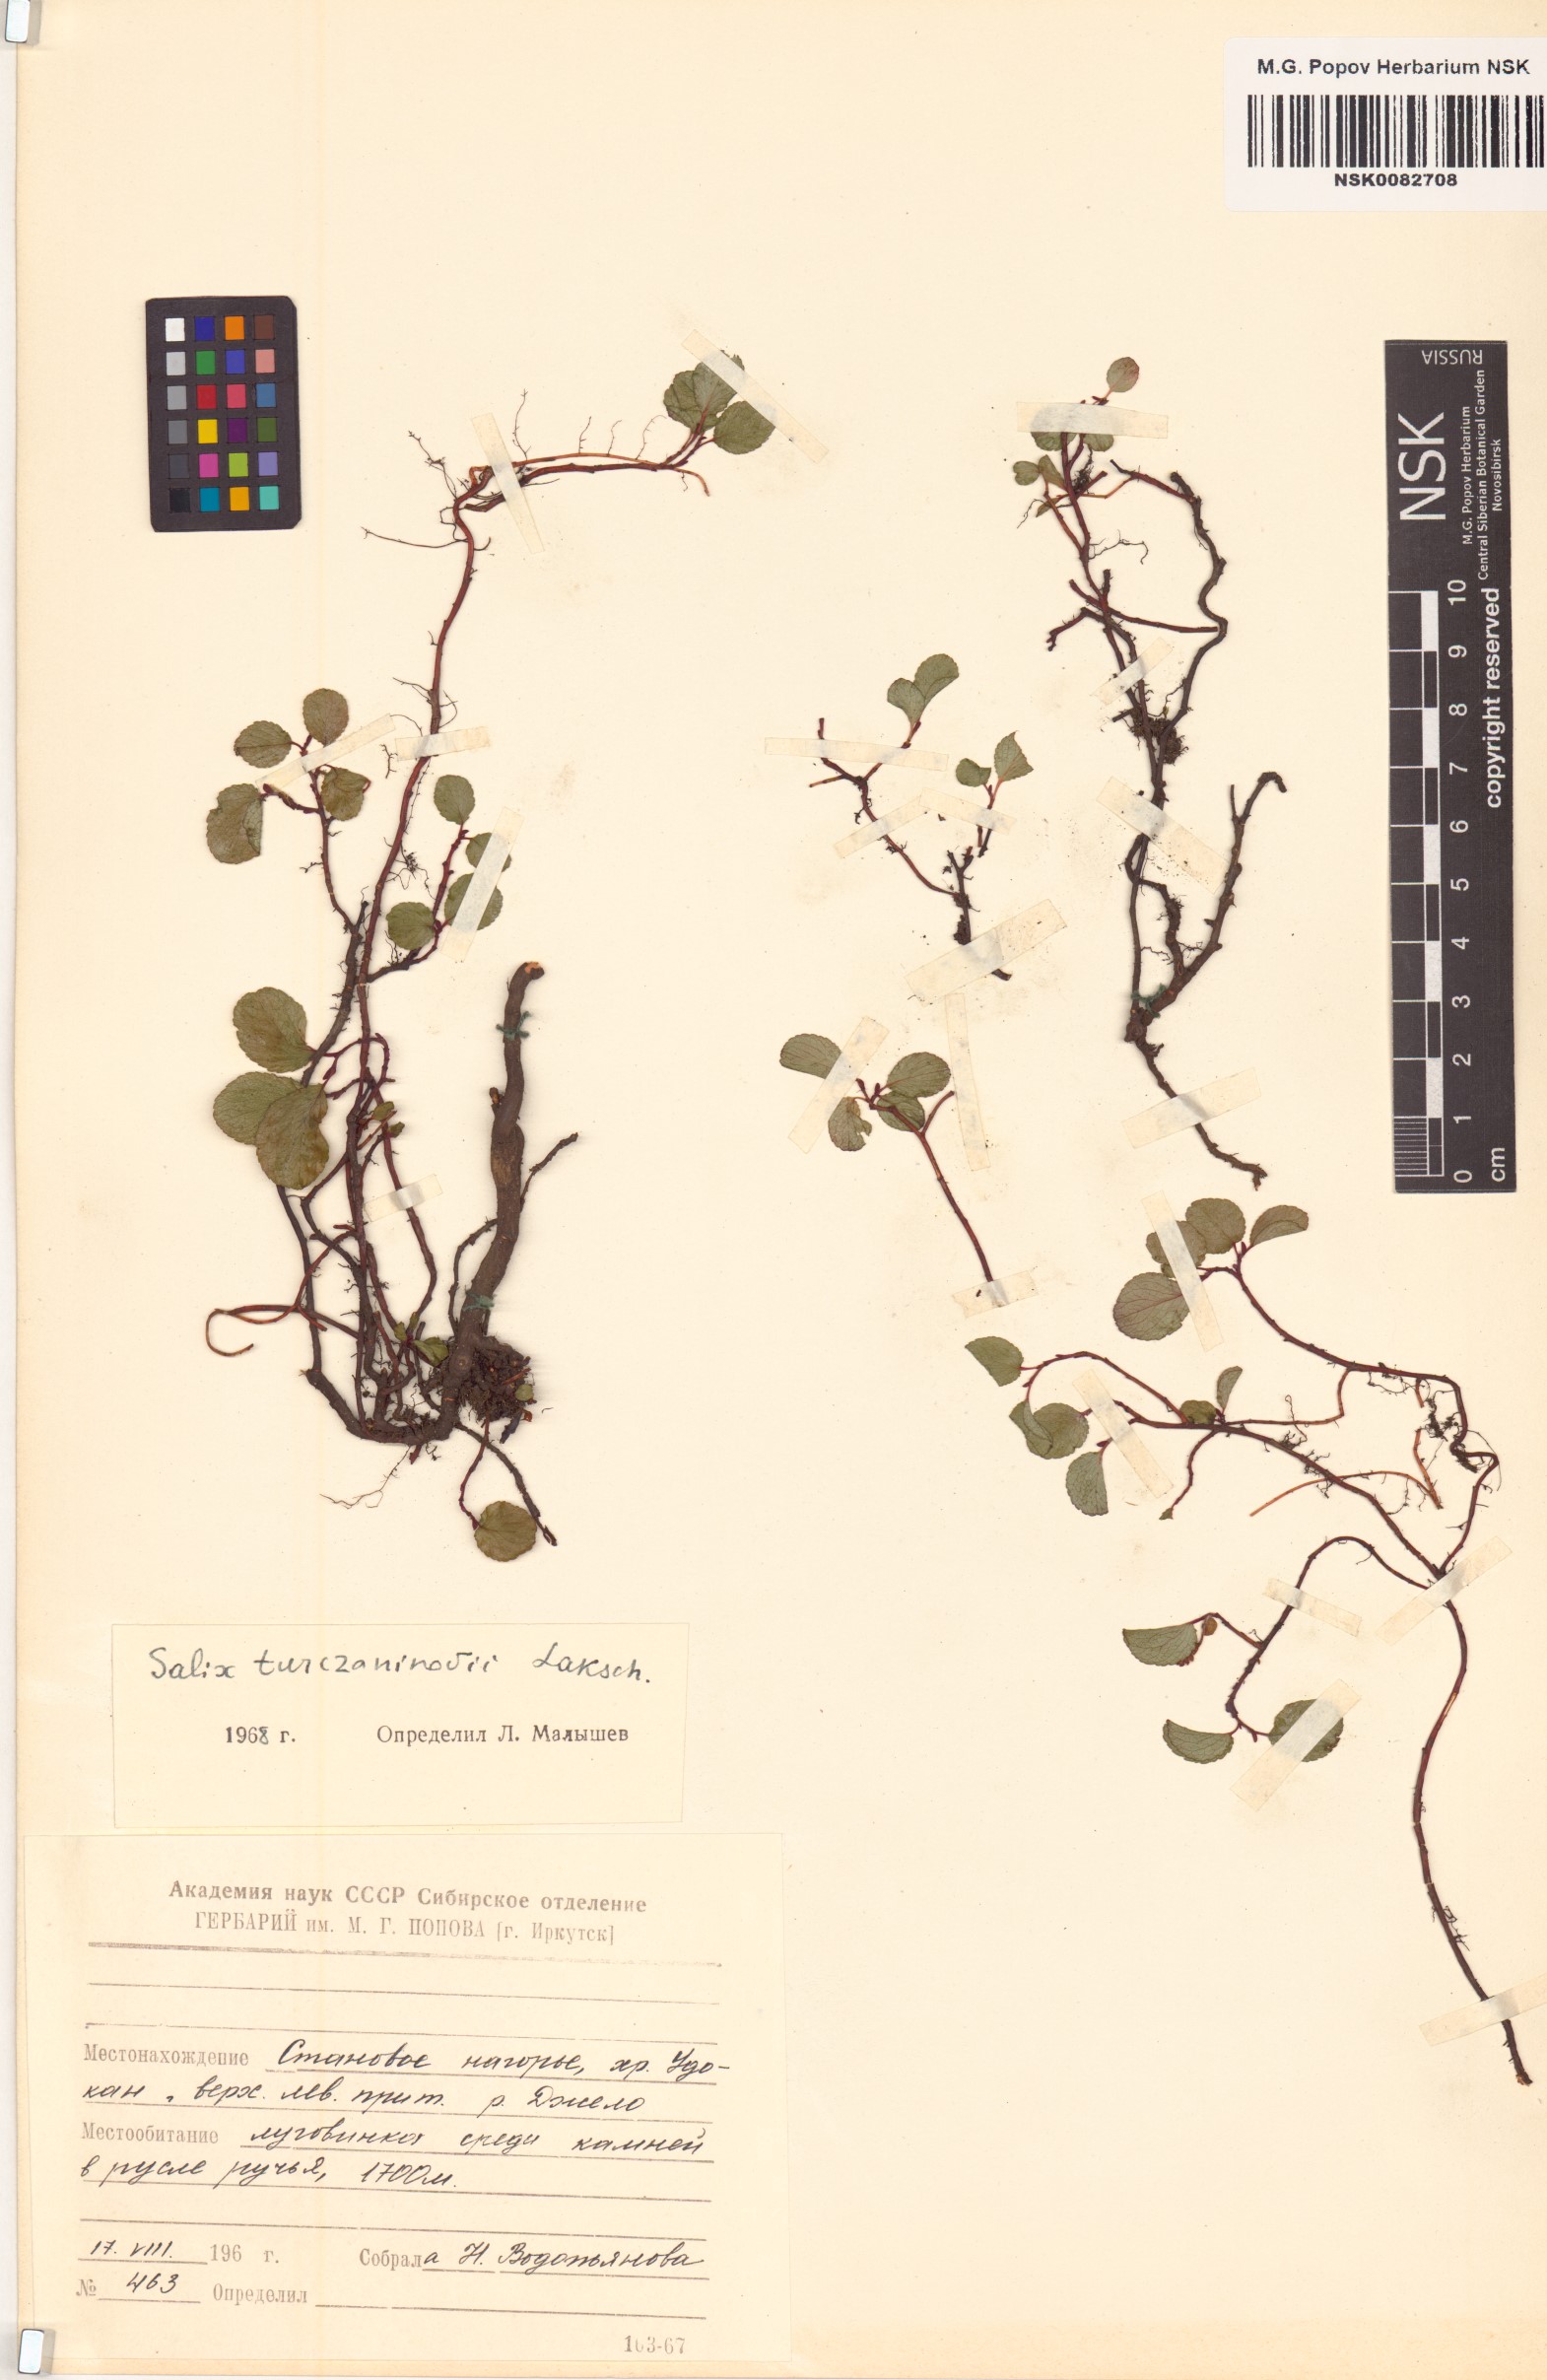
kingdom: Plantae
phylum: Tracheophyta
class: Magnoliopsida
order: Malpighiales
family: Salicaceae
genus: Salix
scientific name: Salix turczaninowii
